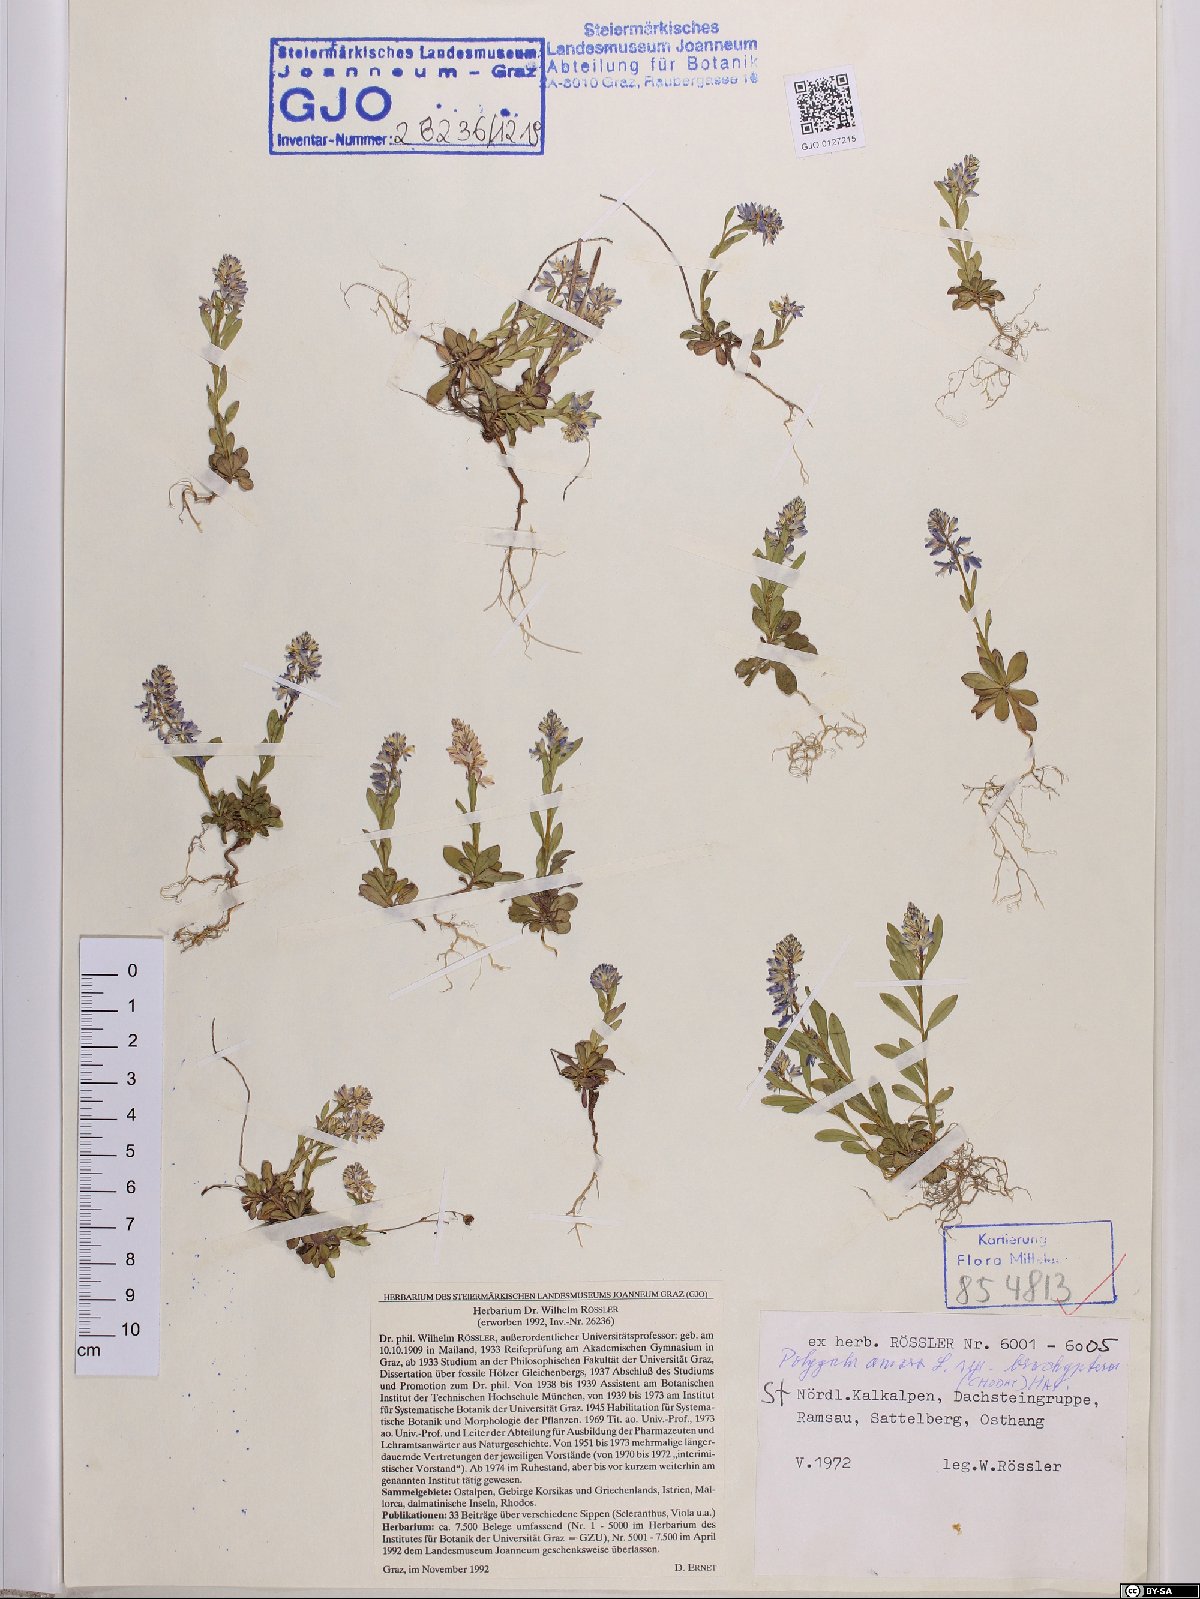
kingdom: Plantae
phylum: Tracheophyta
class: Magnoliopsida
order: Fabales
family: Polygalaceae
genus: Polygala
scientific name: Polygala amara
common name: Milkwort
